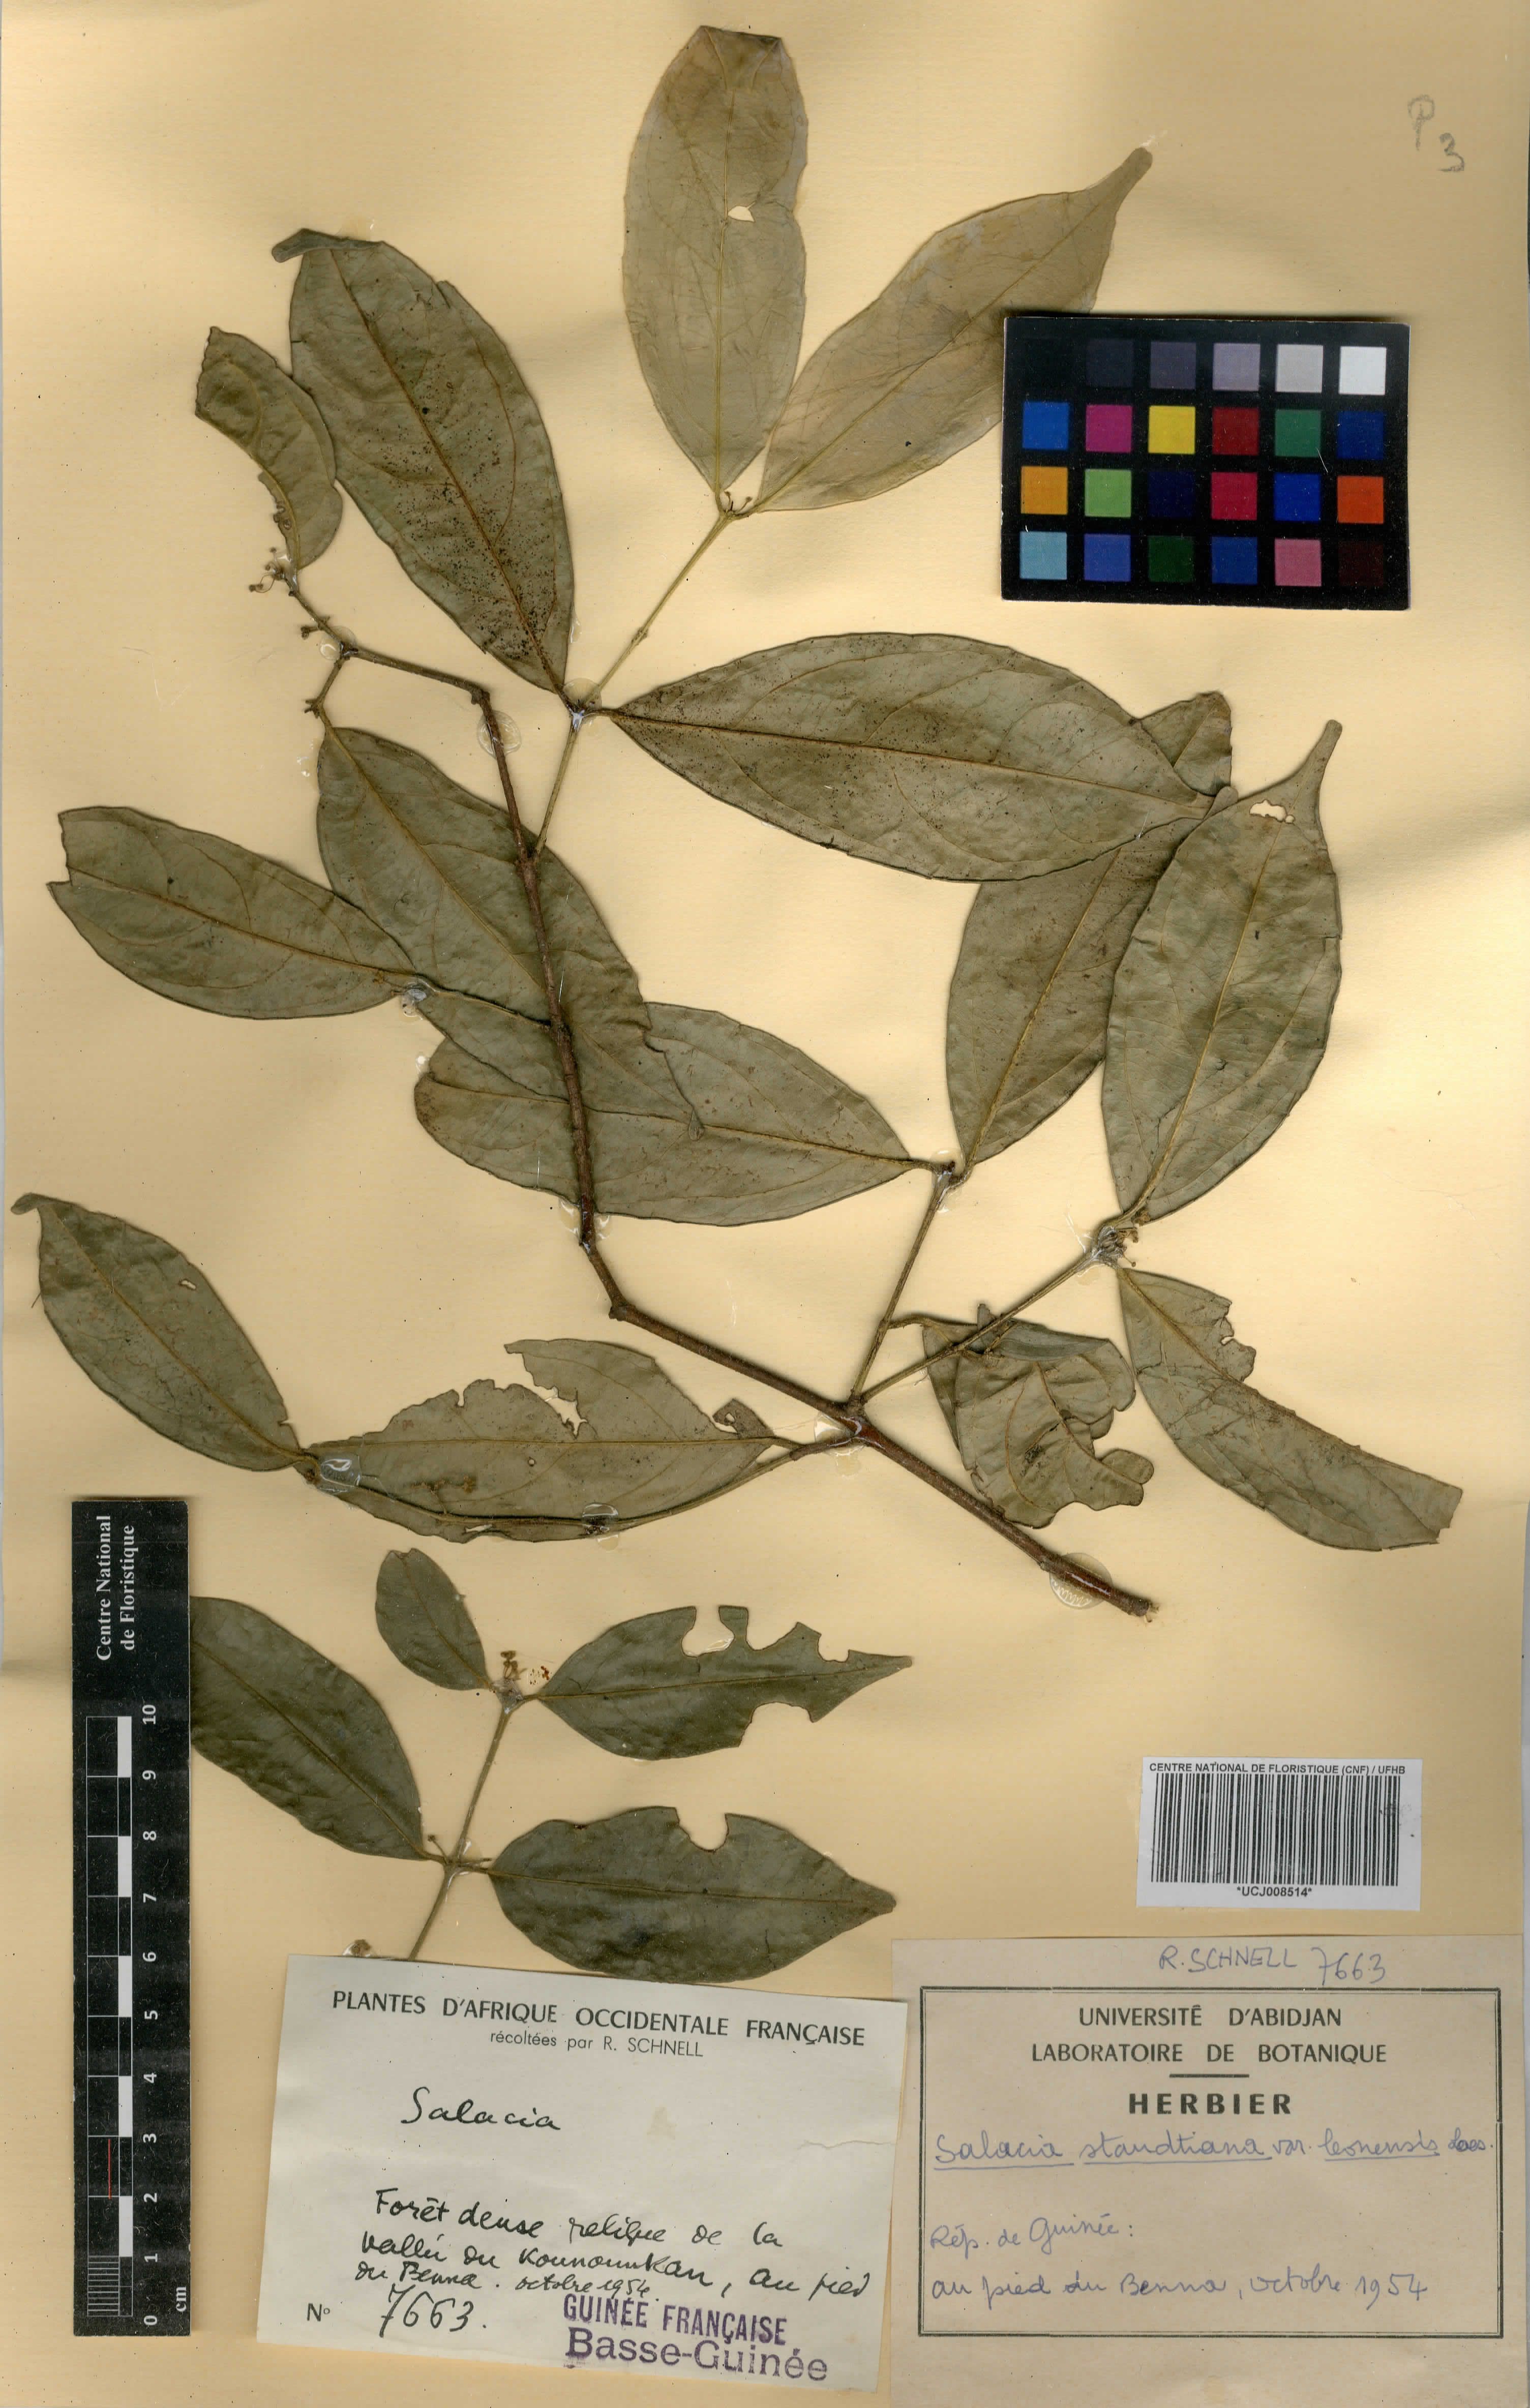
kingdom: Plantae
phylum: Tracheophyta
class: Magnoliopsida
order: Celastrales
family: Celastraceae
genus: Salacia
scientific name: Salacia caillei
